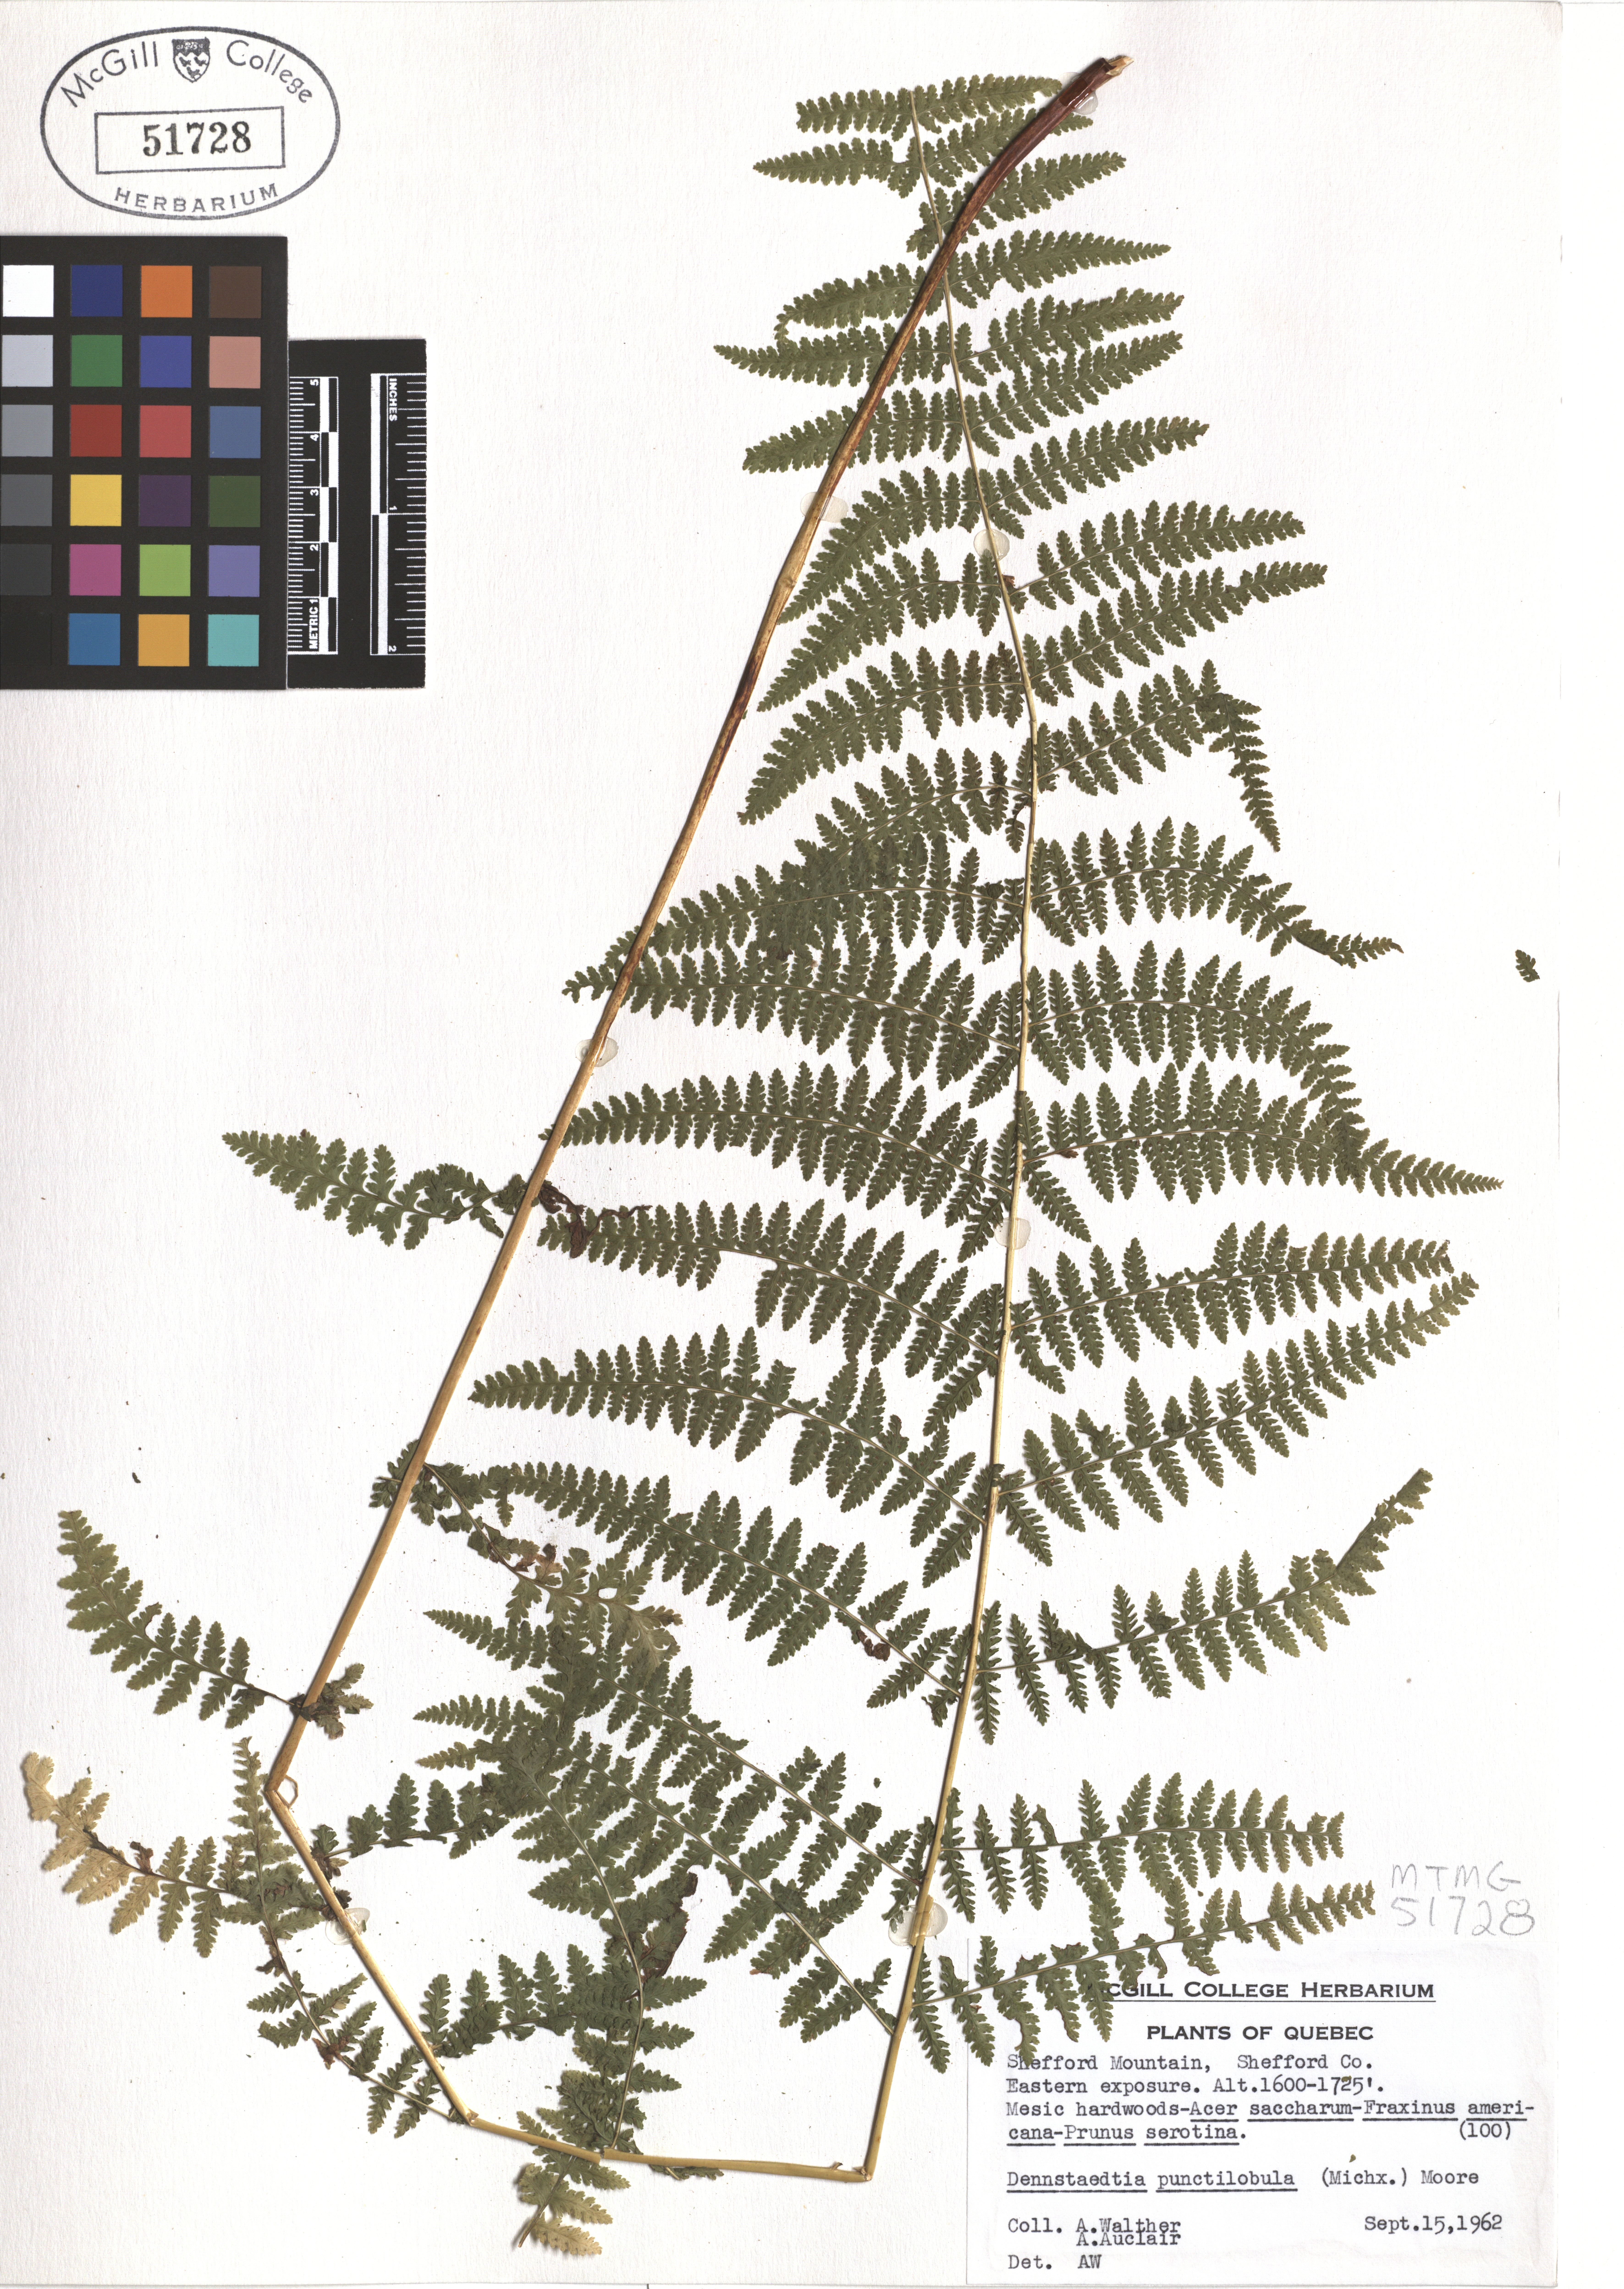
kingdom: Plantae
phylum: Tracheophyta
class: Polypodiopsida
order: Polypodiales
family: Dennstaedtiaceae
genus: Sitobolium
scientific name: Sitobolium punctilobum
